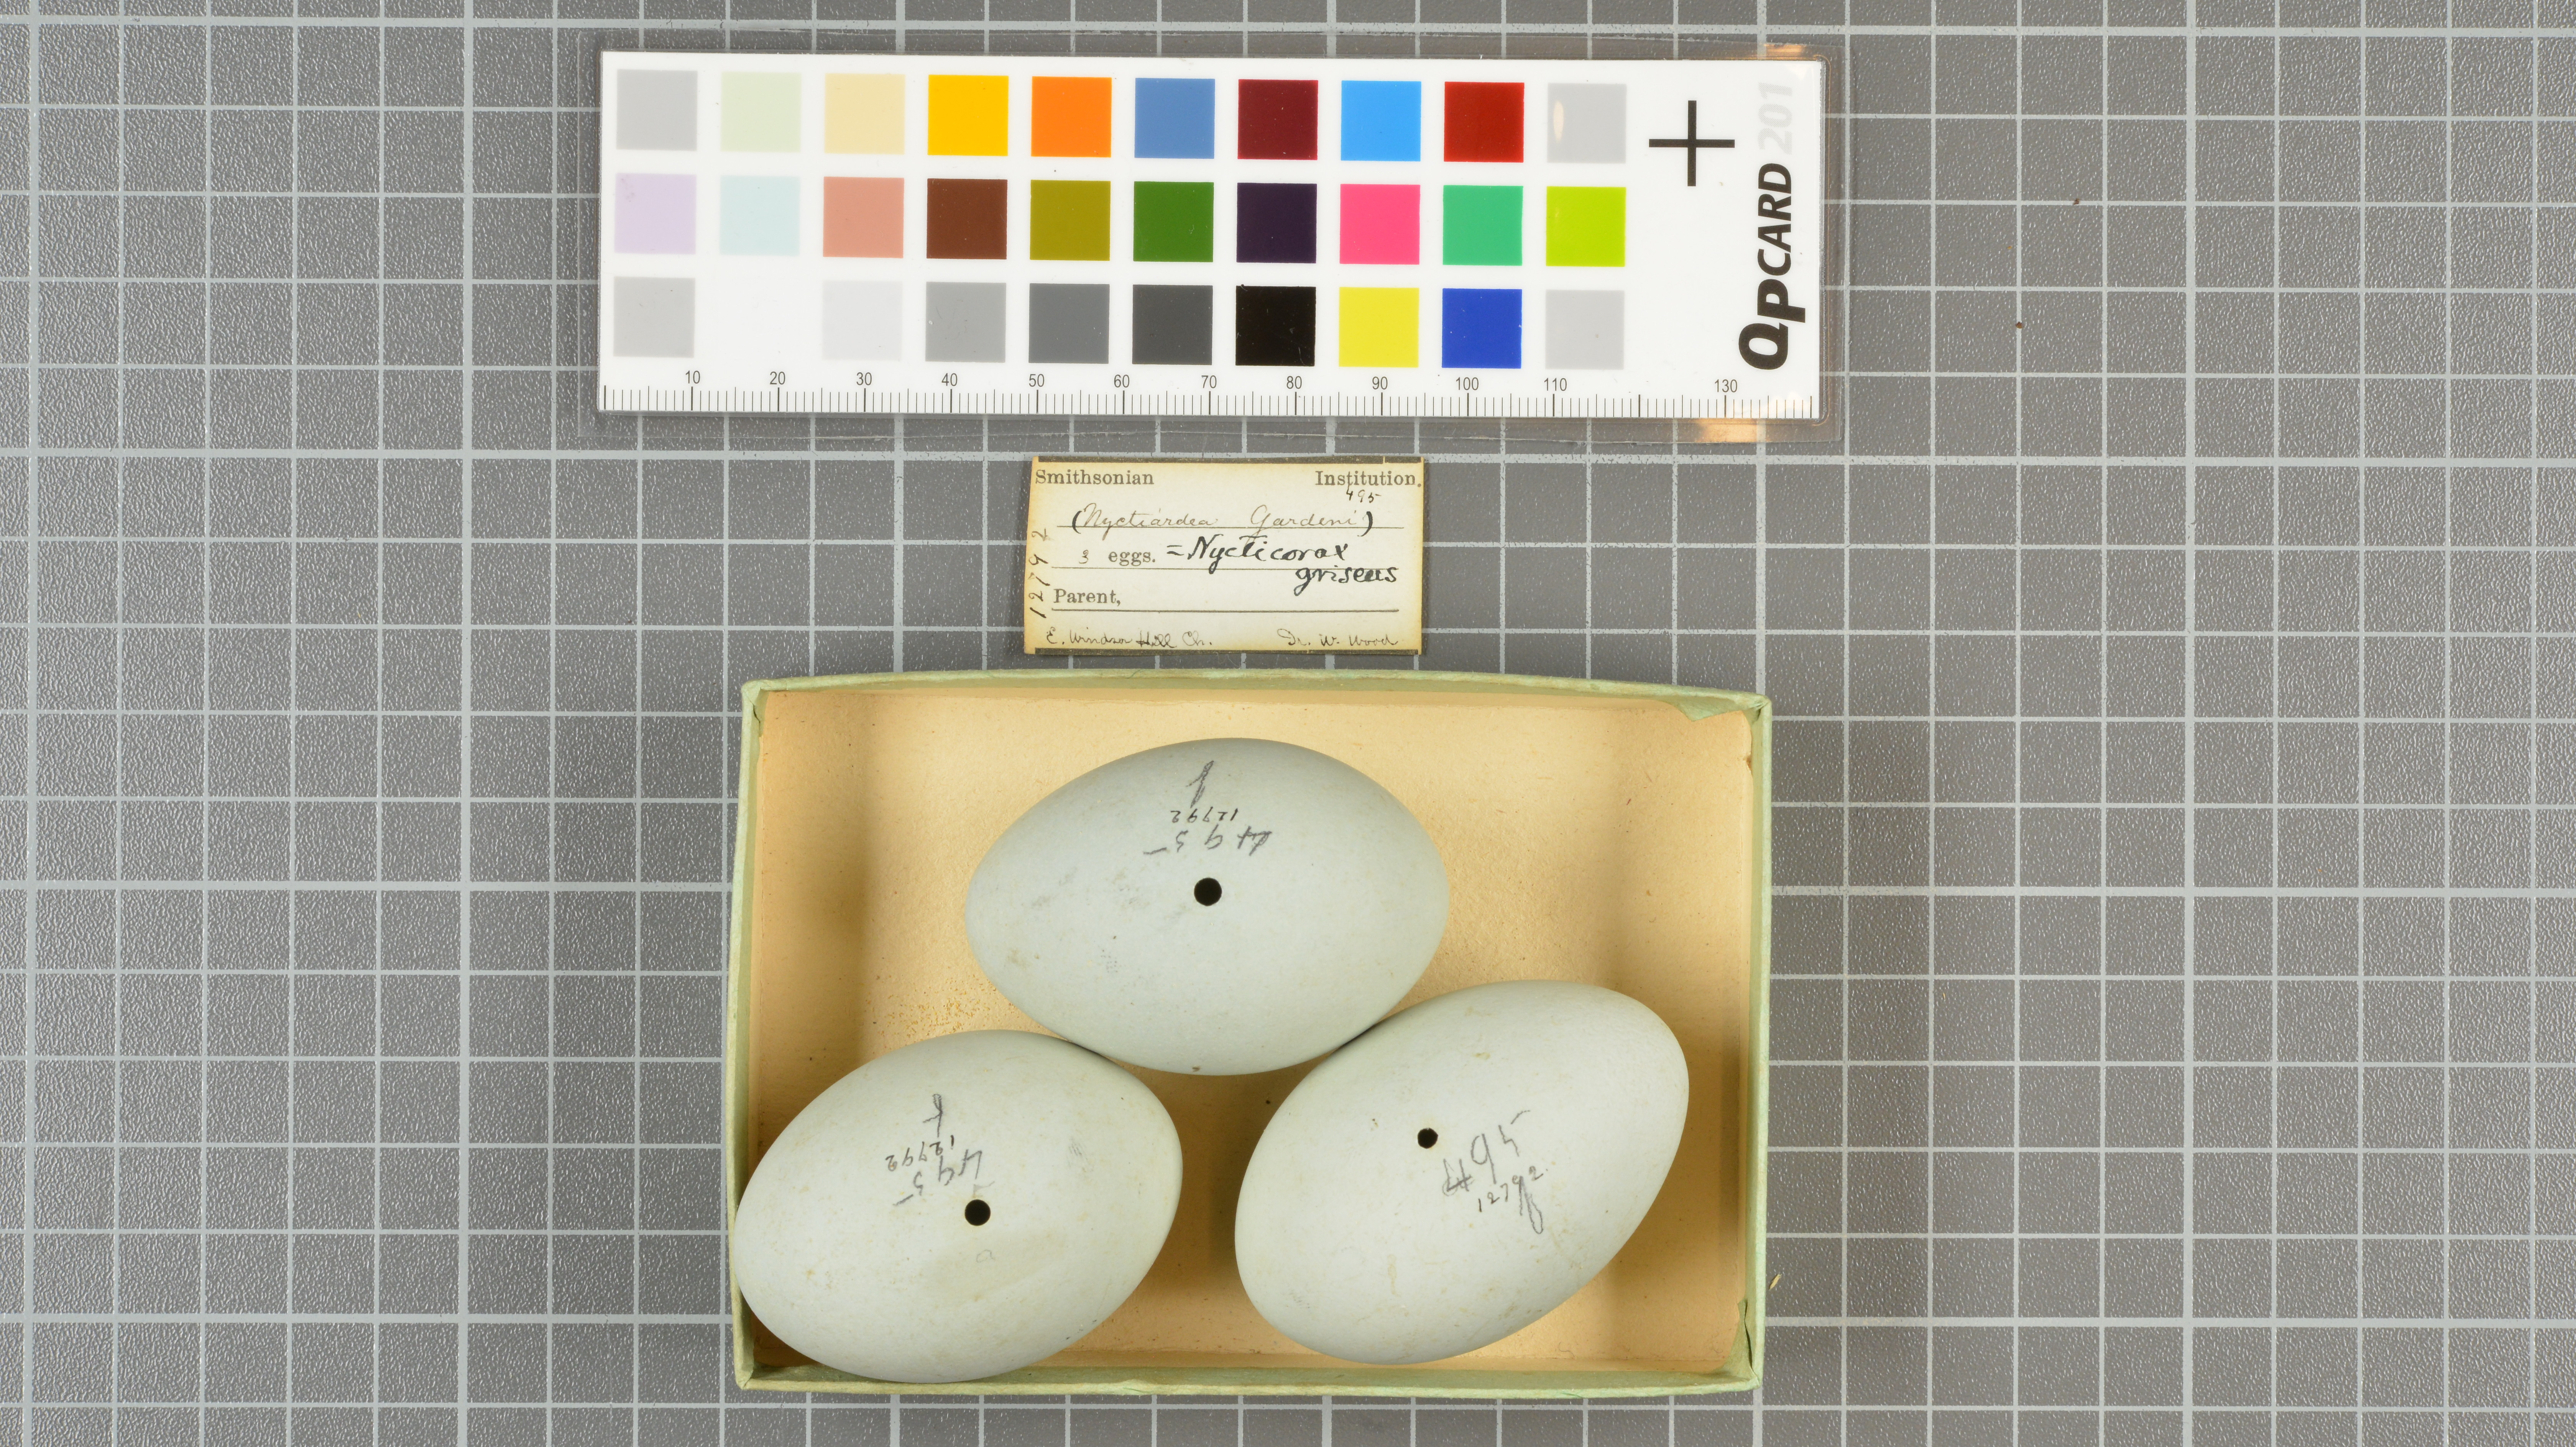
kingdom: Animalia
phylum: Chordata
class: Aves
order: Pelecaniformes
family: Ardeidae
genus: Nycticorax
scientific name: Nycticorax nycticorax
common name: Black-crowned night heron
